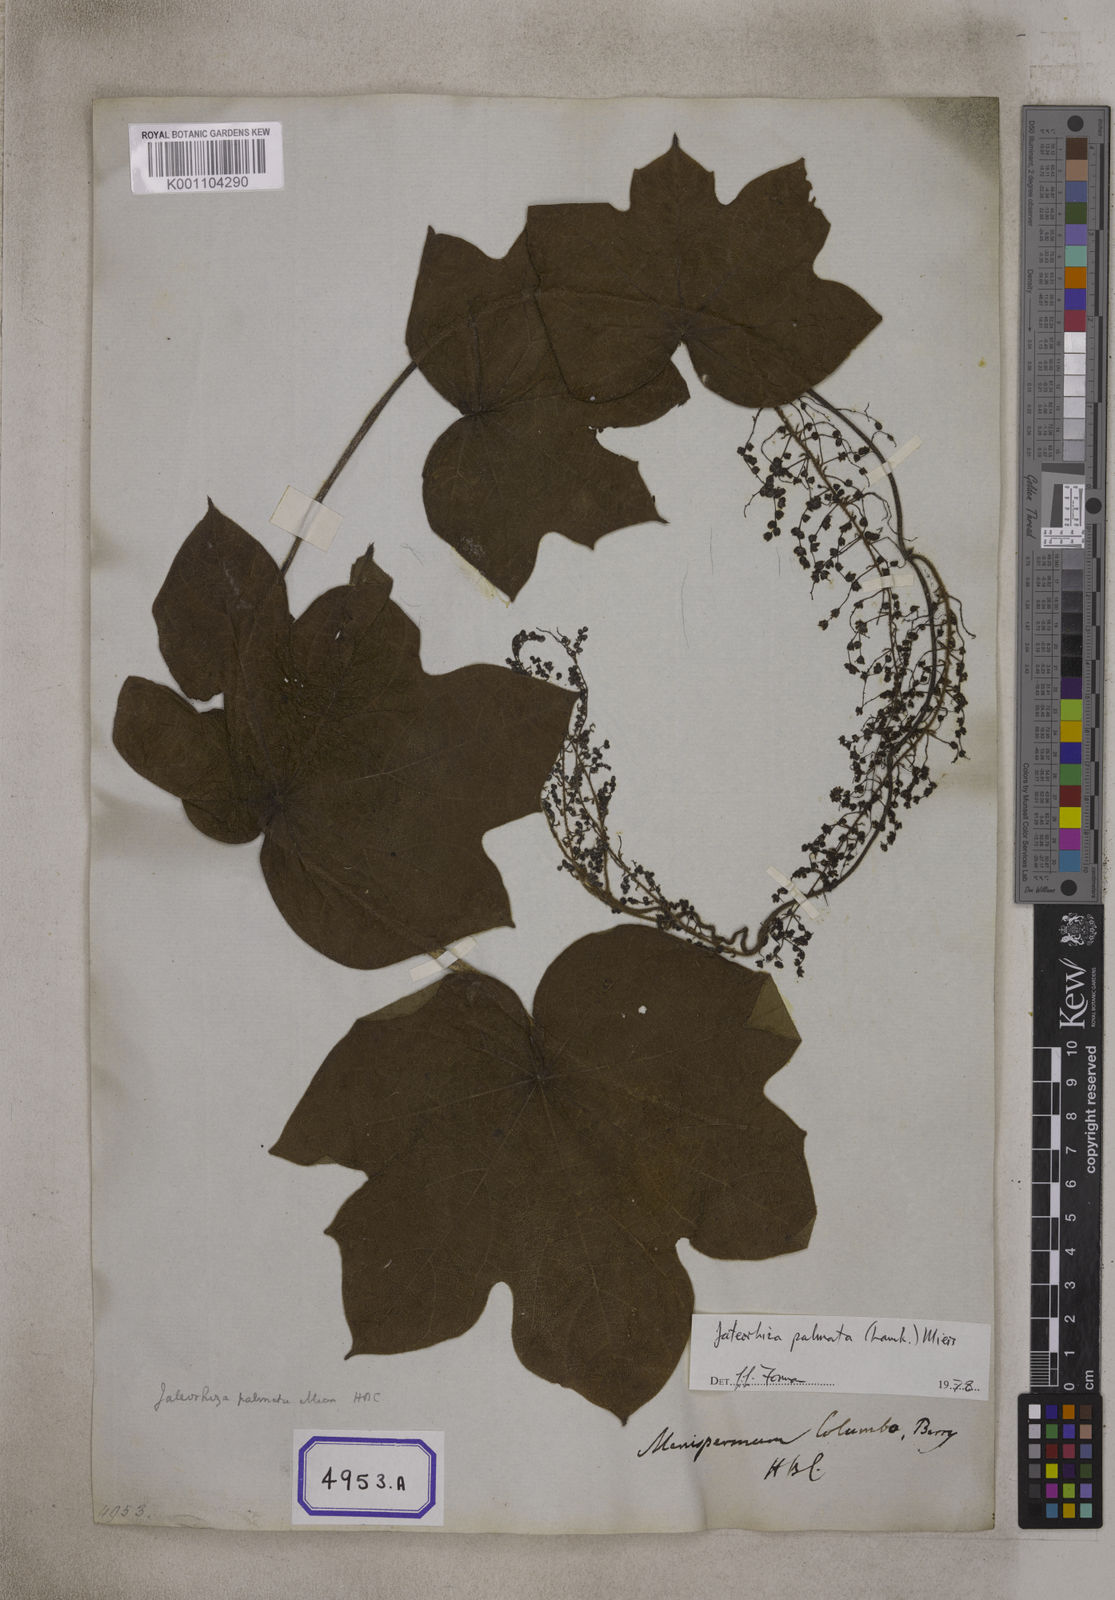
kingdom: Plantae
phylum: Tracheophyta
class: Magnoliopsida
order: Ranunculales
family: Menispermaceae
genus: Jateorhiza
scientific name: Jateorhiza palmata
